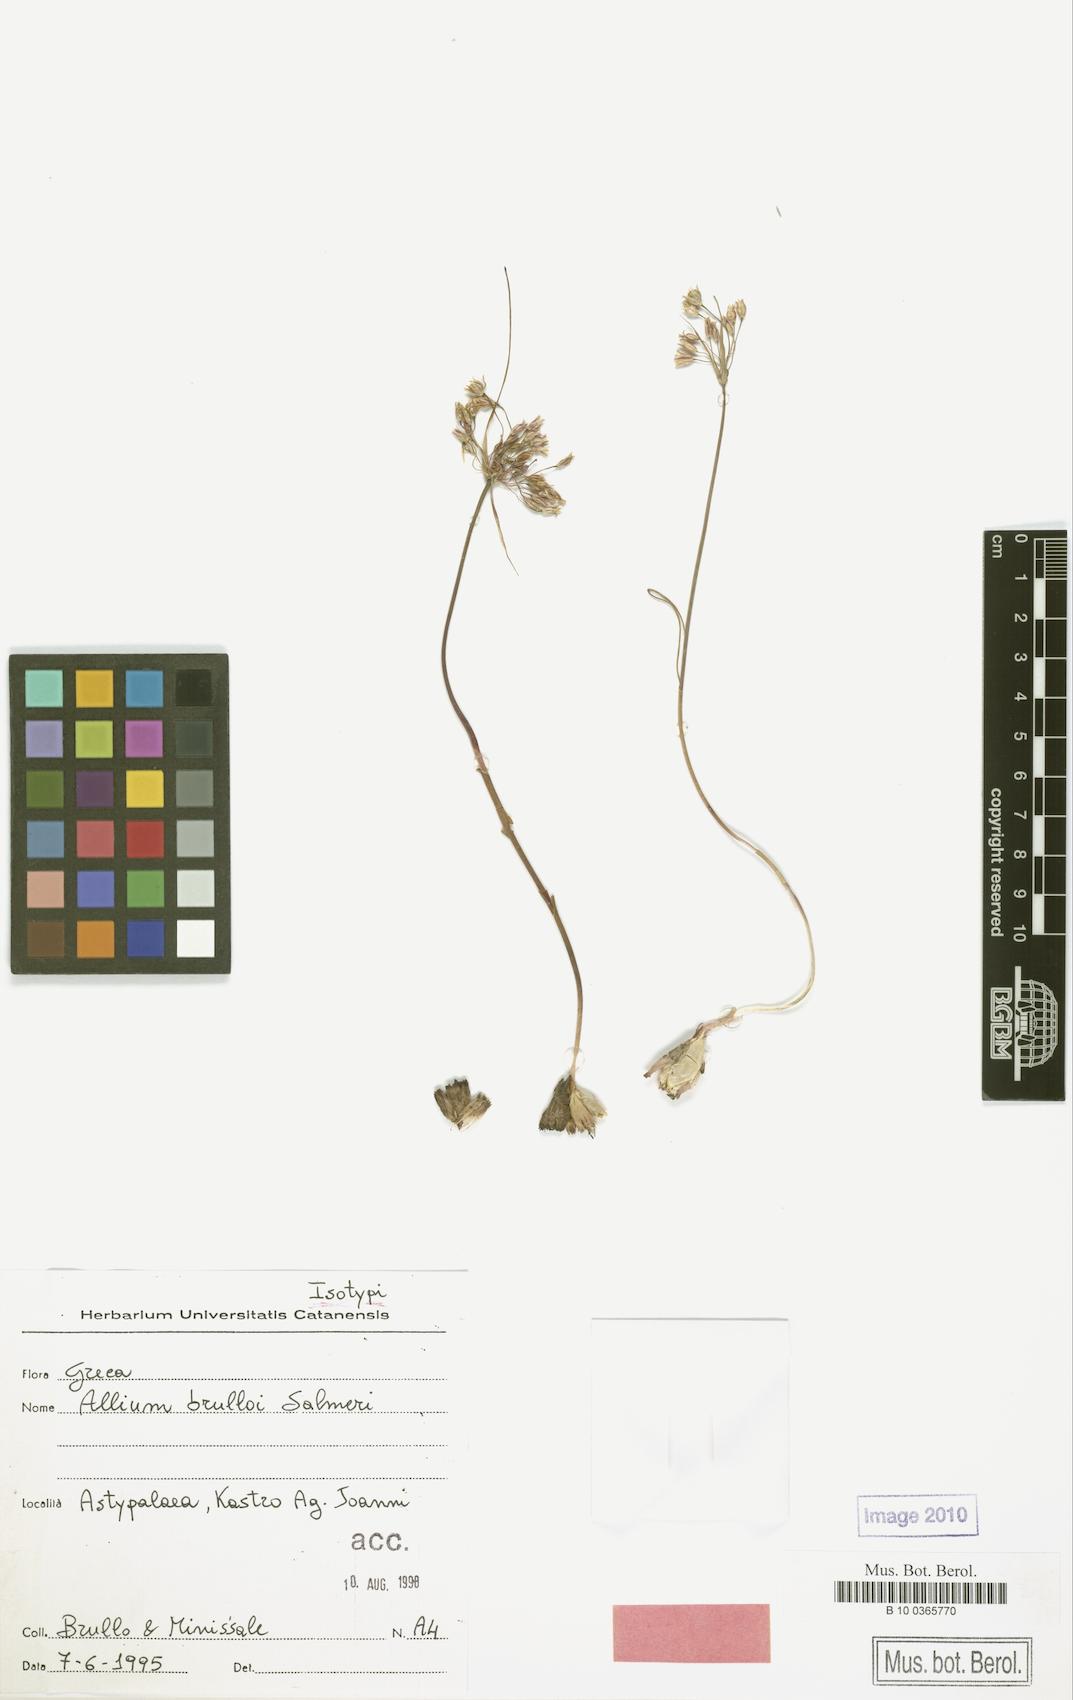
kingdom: Plantae
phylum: Tracheophyta
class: Liliopsida
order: Asparagales
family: Amaryllidaceae
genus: Allium
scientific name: Allium brulloi
